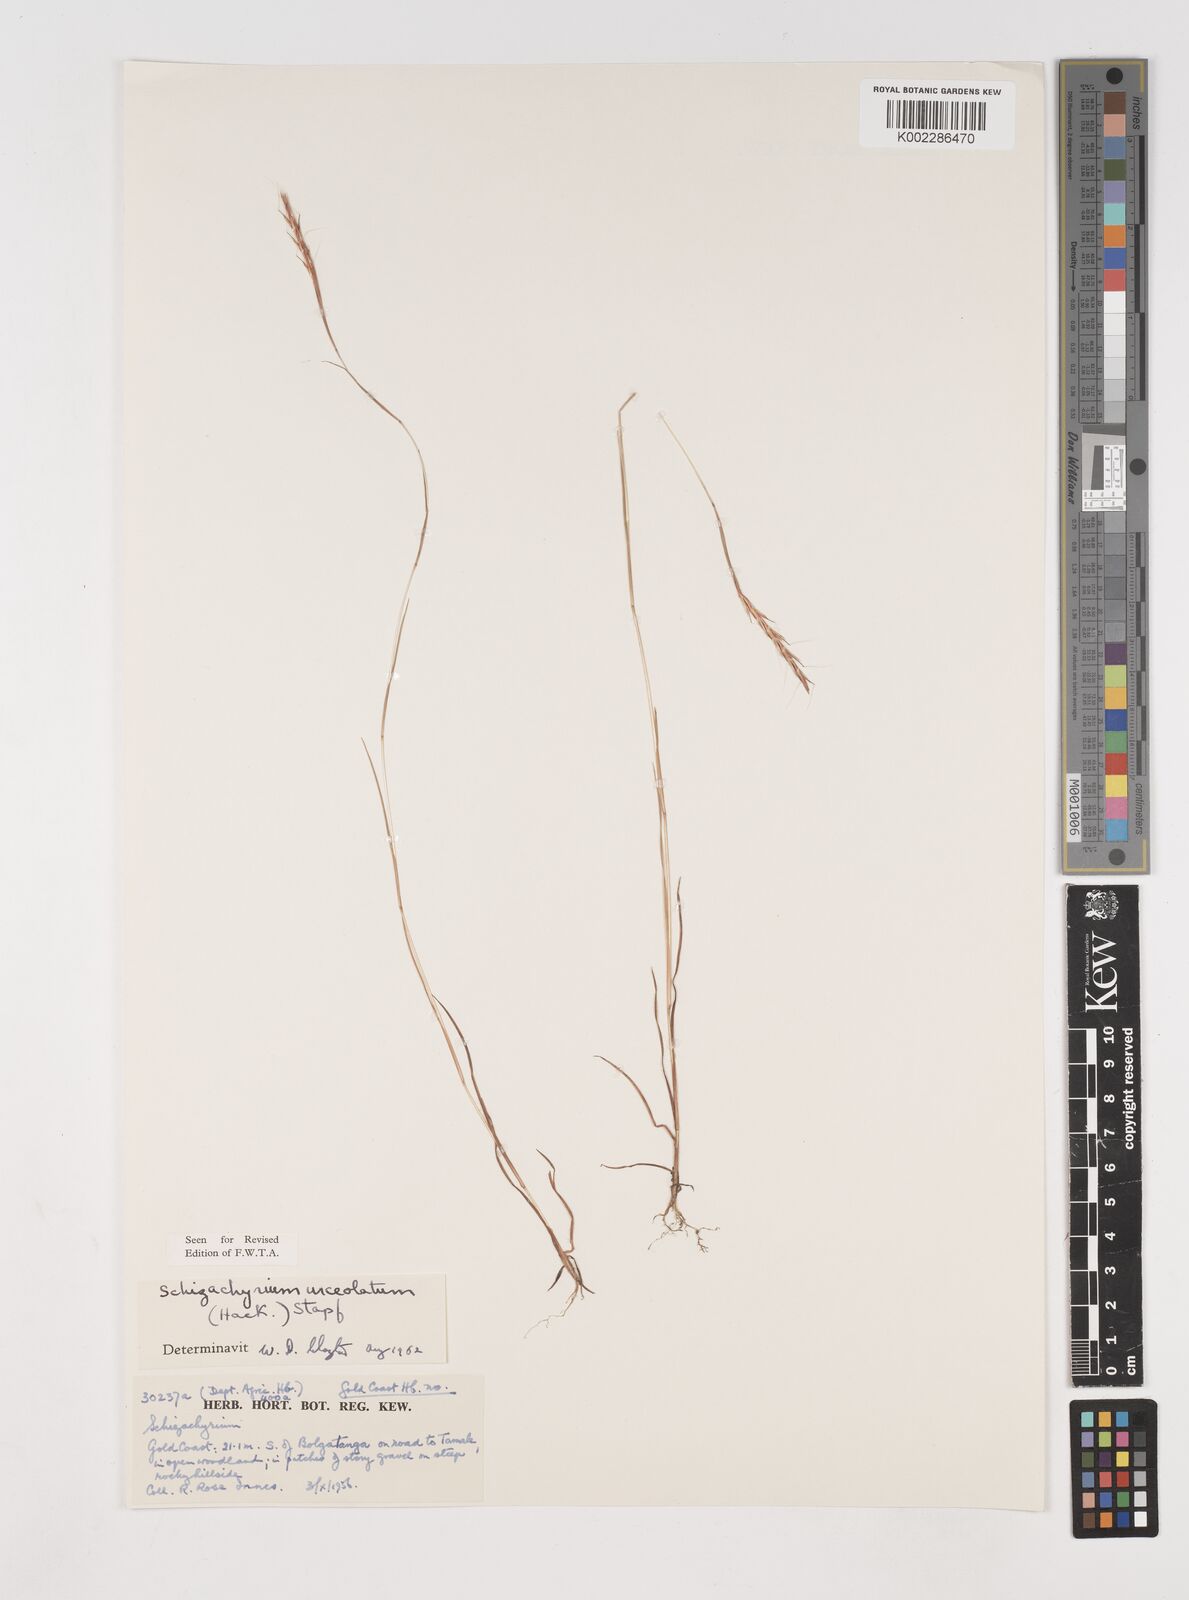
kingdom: Plantae
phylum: Tracheophyta
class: Liliopsida
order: Poales
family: Poaceae
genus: Schizachyrium
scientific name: Schizachyrium urceolatum
